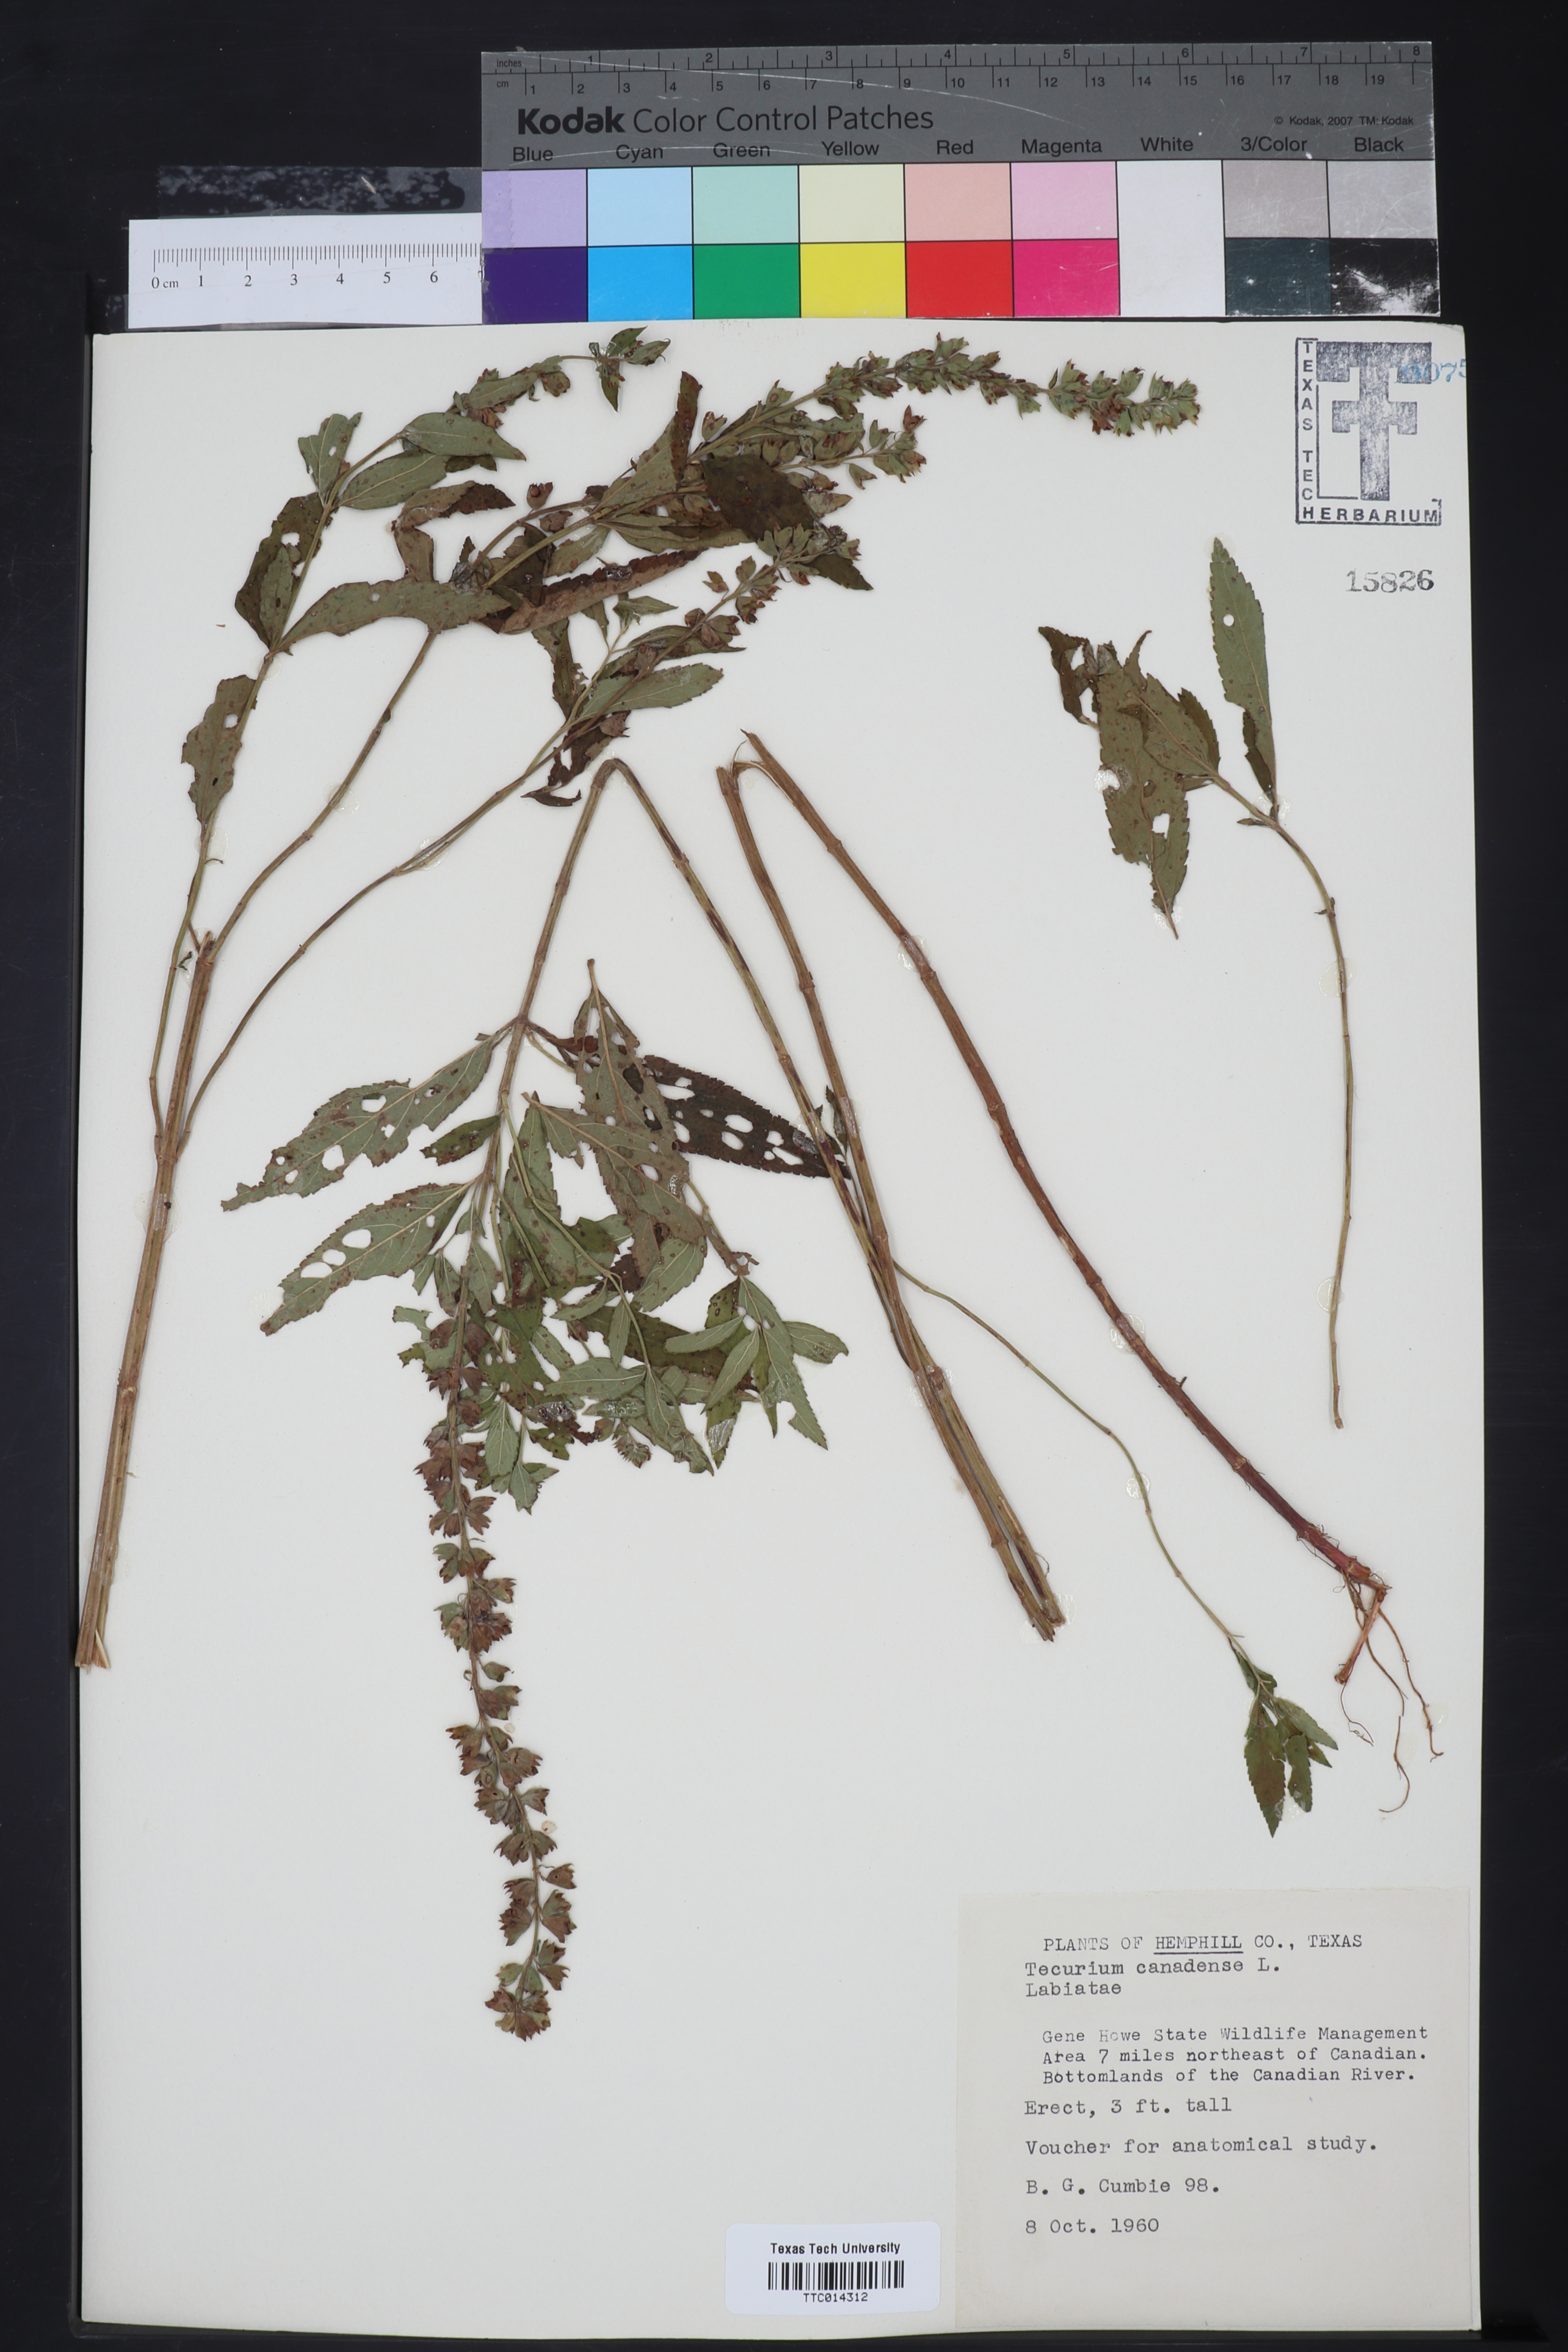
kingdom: Plantae
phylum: Tracheophyta
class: Magnoliopsida
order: Lamiales
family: Lamiaceae
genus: Teucrium
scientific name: Teucrium canadense
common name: American germander
